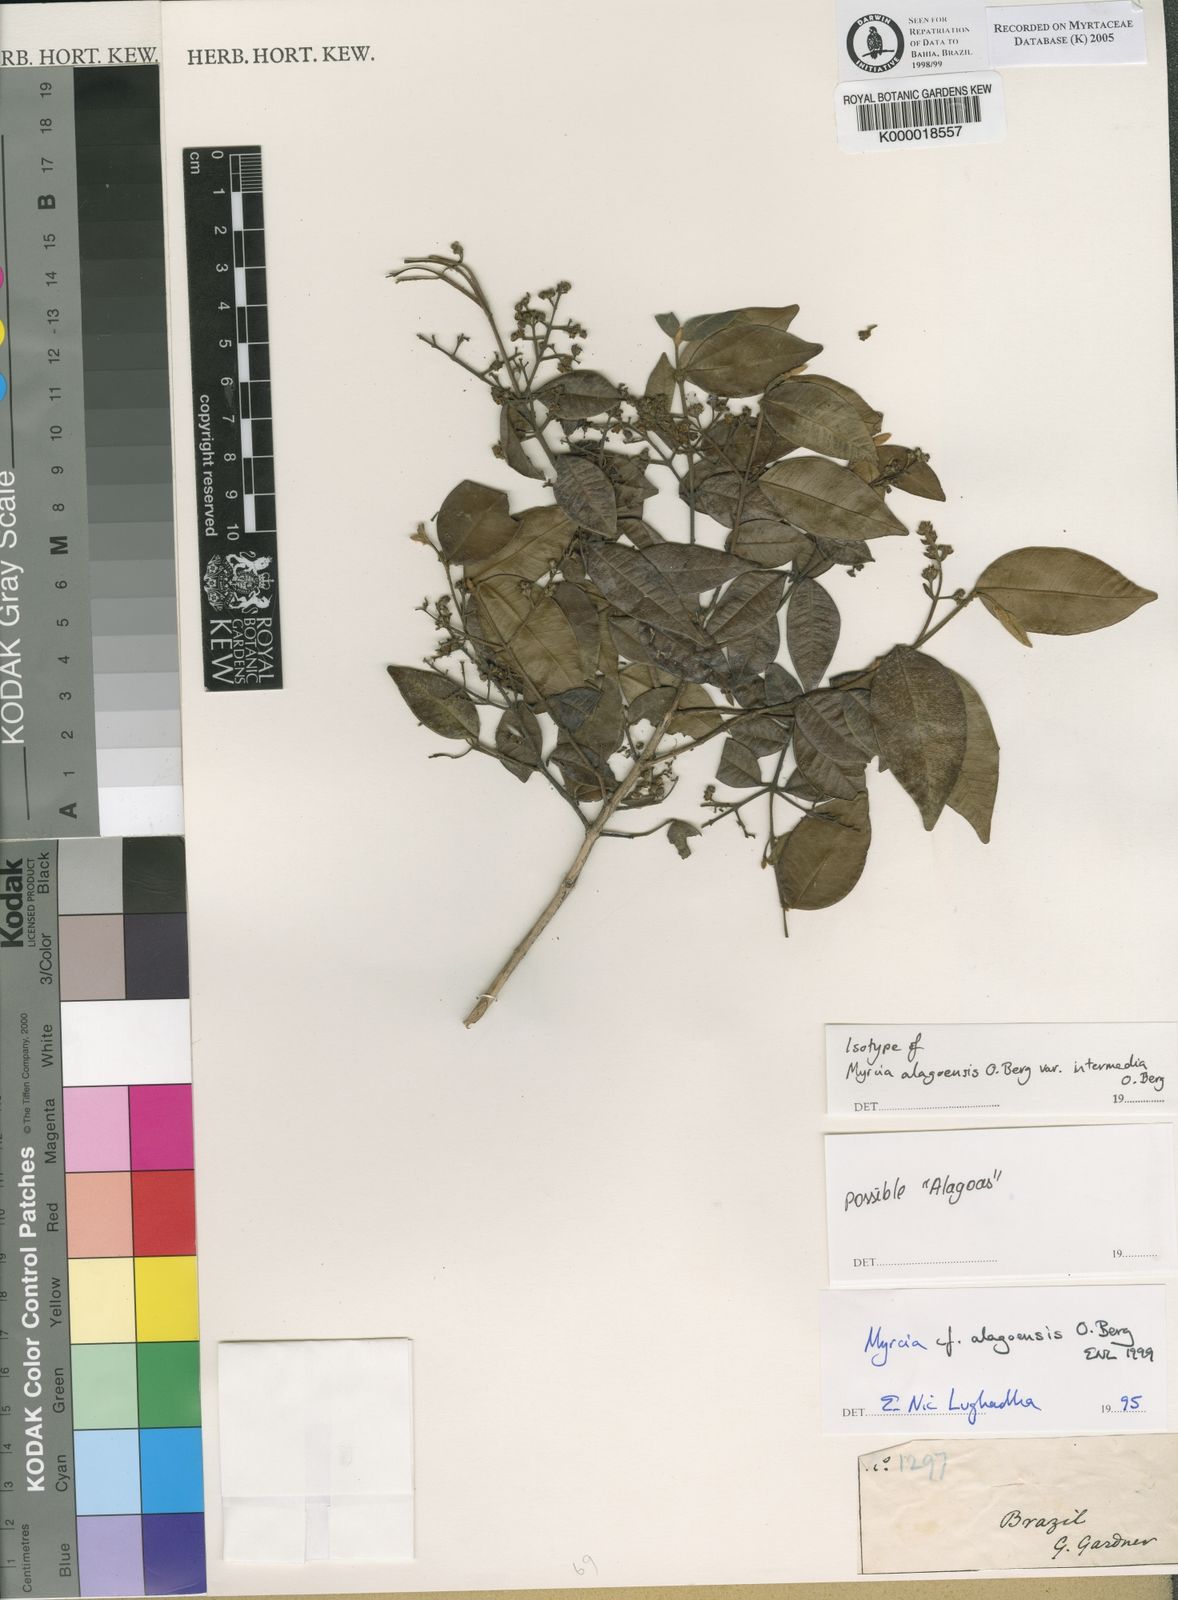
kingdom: Plantae
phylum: Tracheophyta
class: Magnoliopsida
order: Myrtales
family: Myrtaceae
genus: Myrcia
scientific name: Myrcia splendens
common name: Surinam cherry
